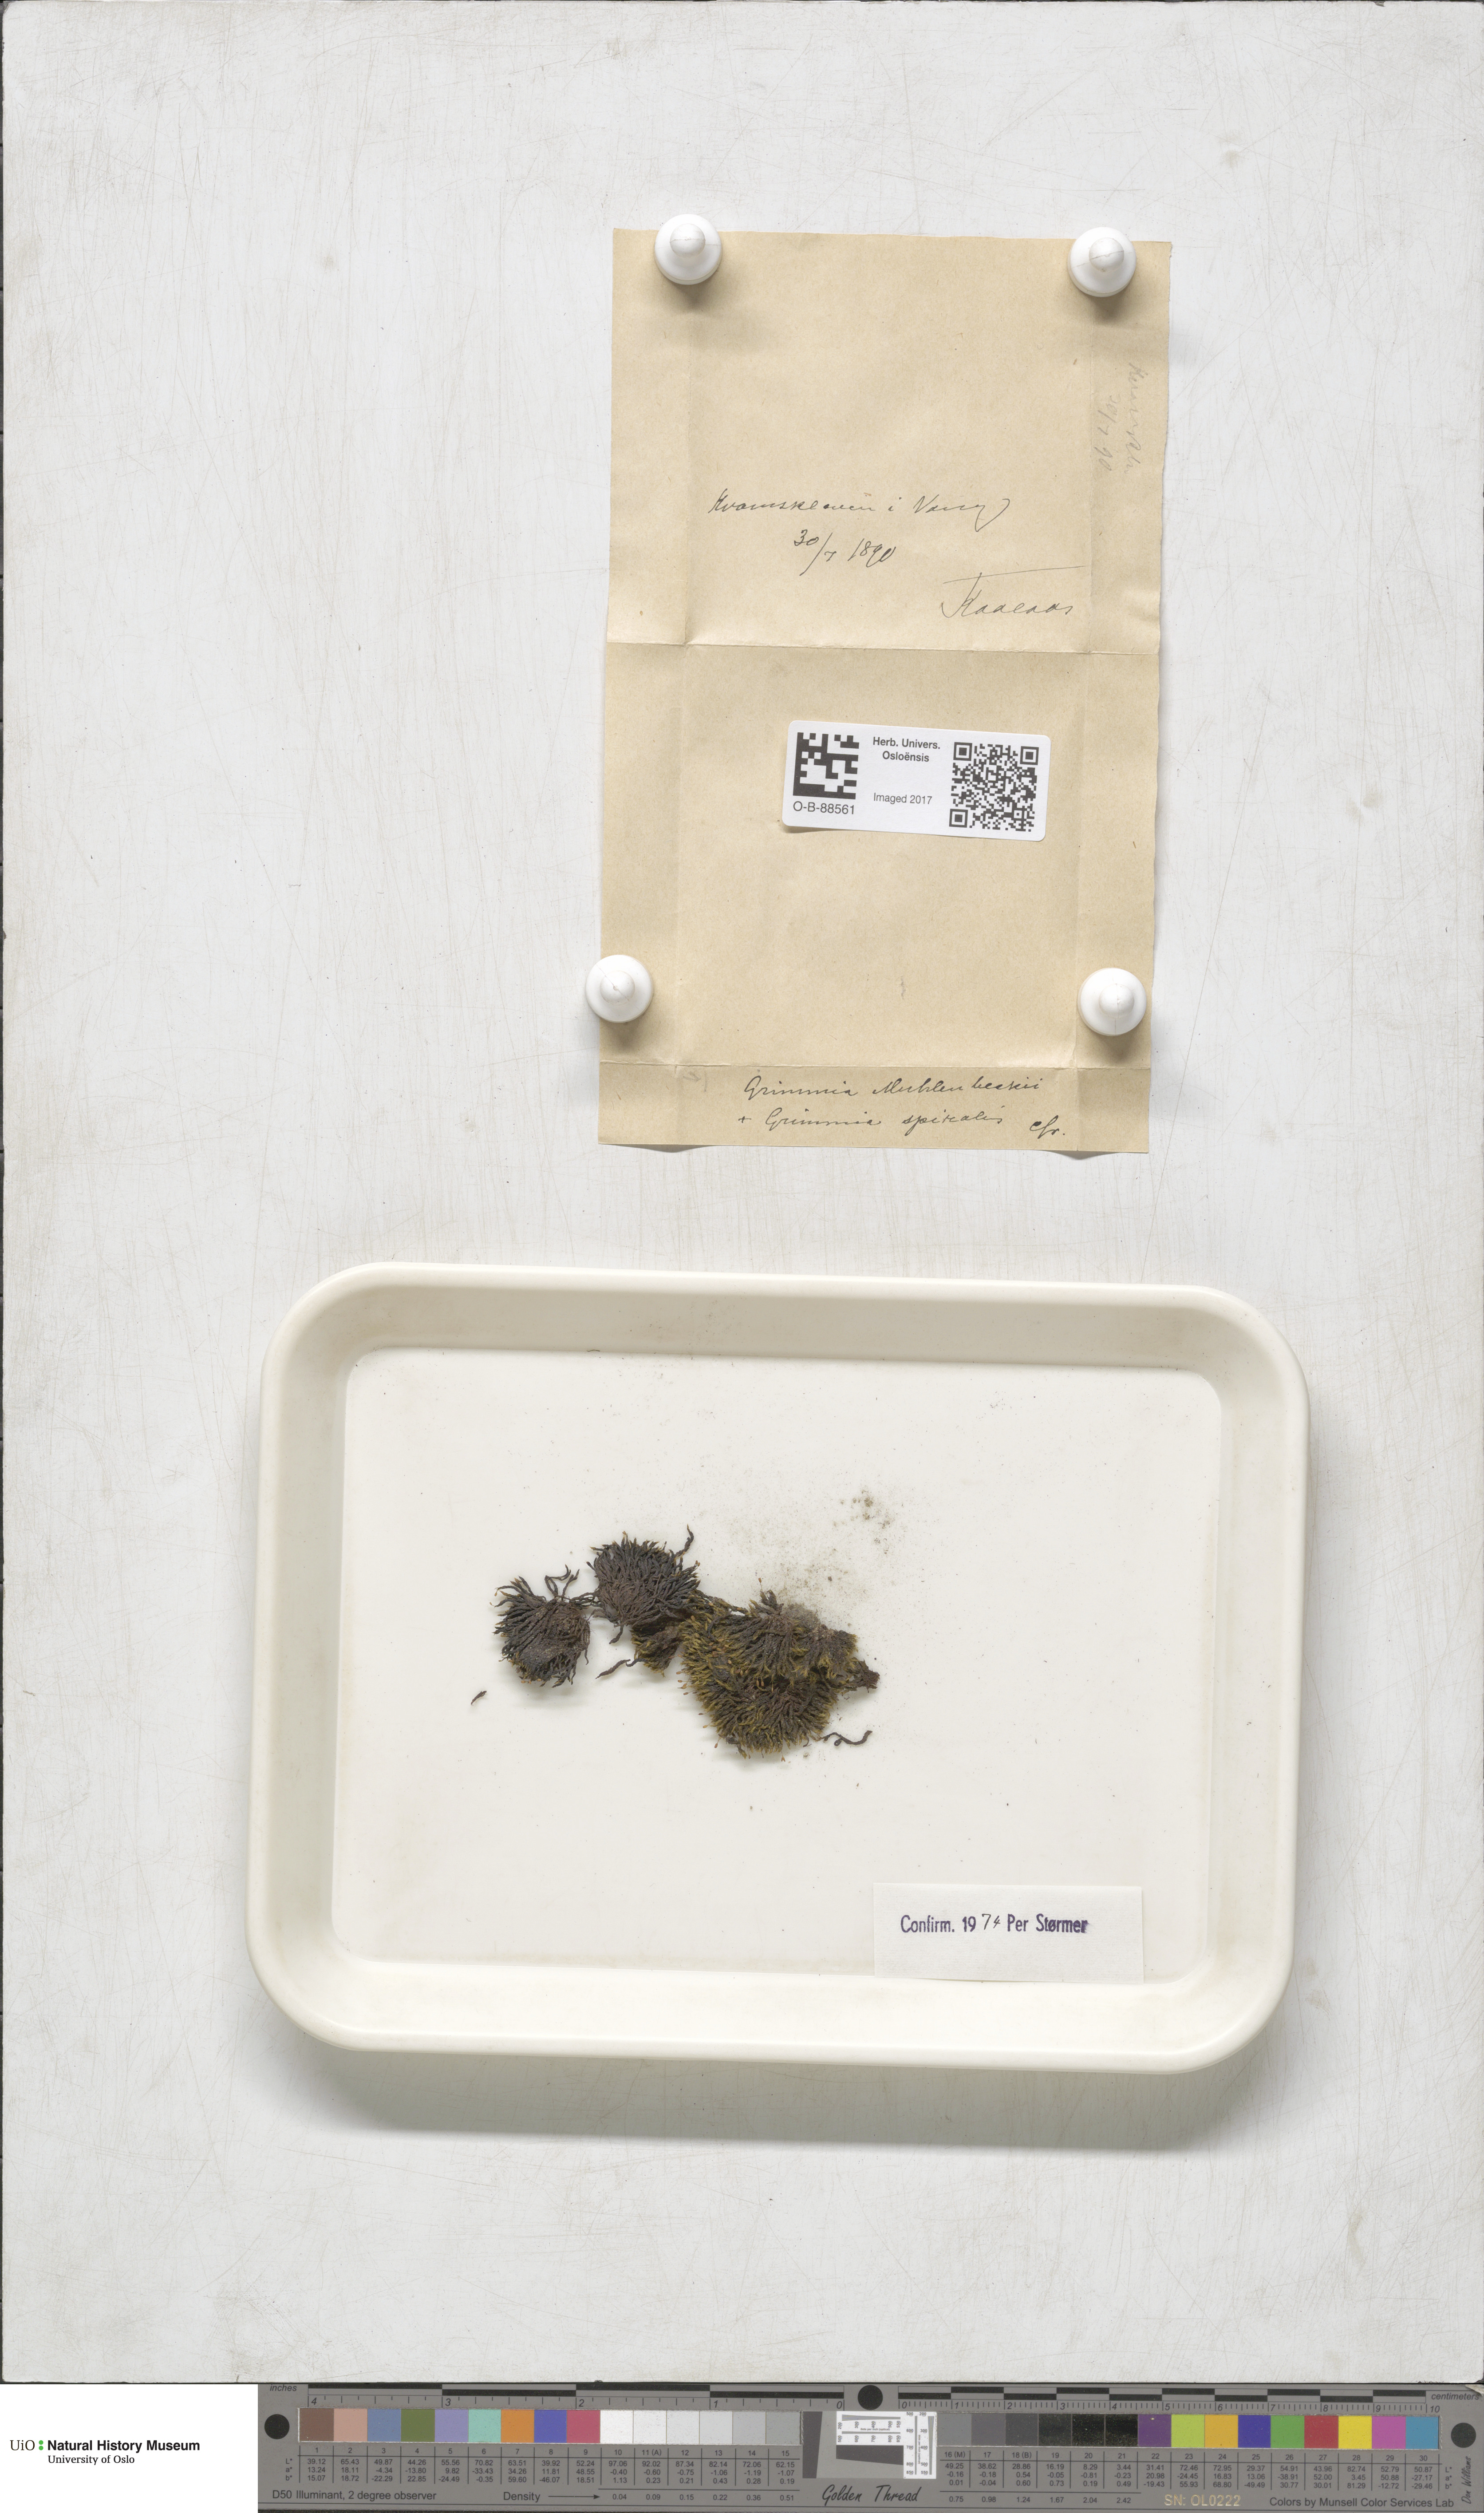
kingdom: Plantae
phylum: Bryophyta
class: Bryopsida
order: Grimmiales
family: Grimmiaceae
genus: Grimmia
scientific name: Grimmia trichophylla
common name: Hair-pointed grimmia
